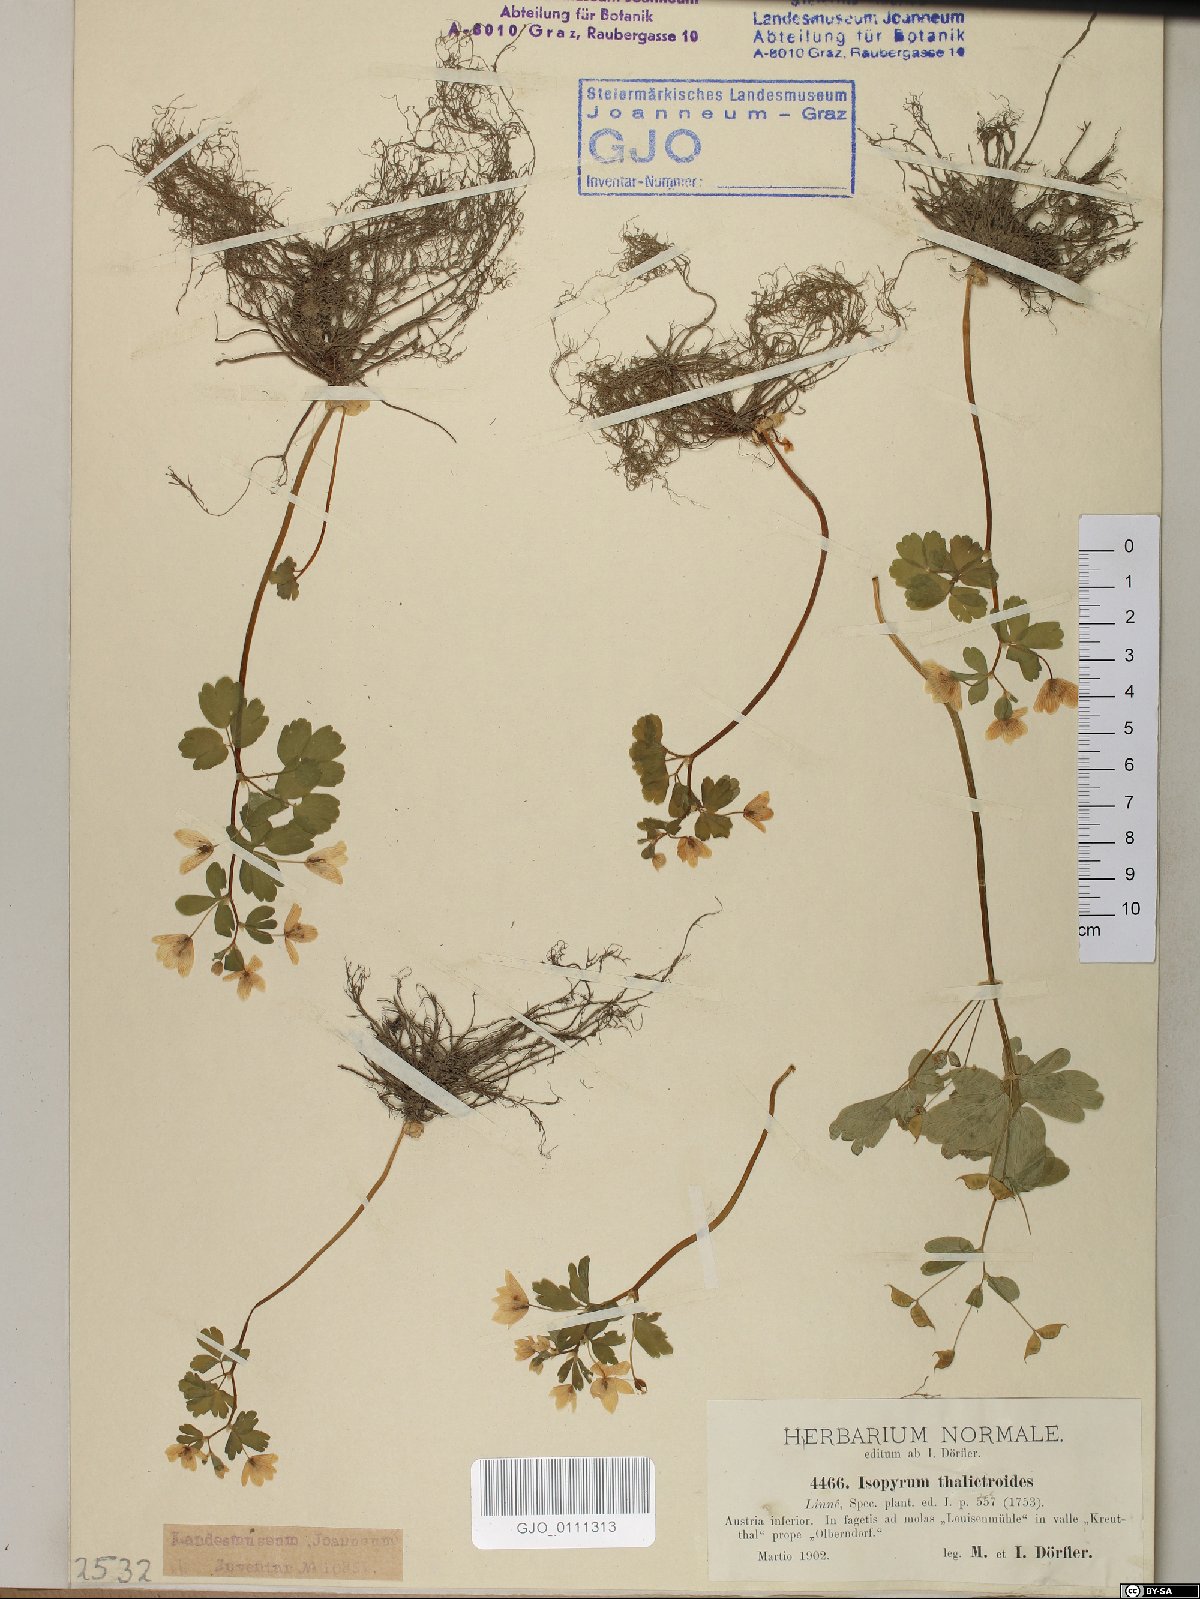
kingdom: Plantae
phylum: Tracheophyta
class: Magnoliopsida
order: Ranunculales
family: Ranunculaceae
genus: Isopyrum
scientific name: Isopyrum thalictroides
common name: Isopyrum
